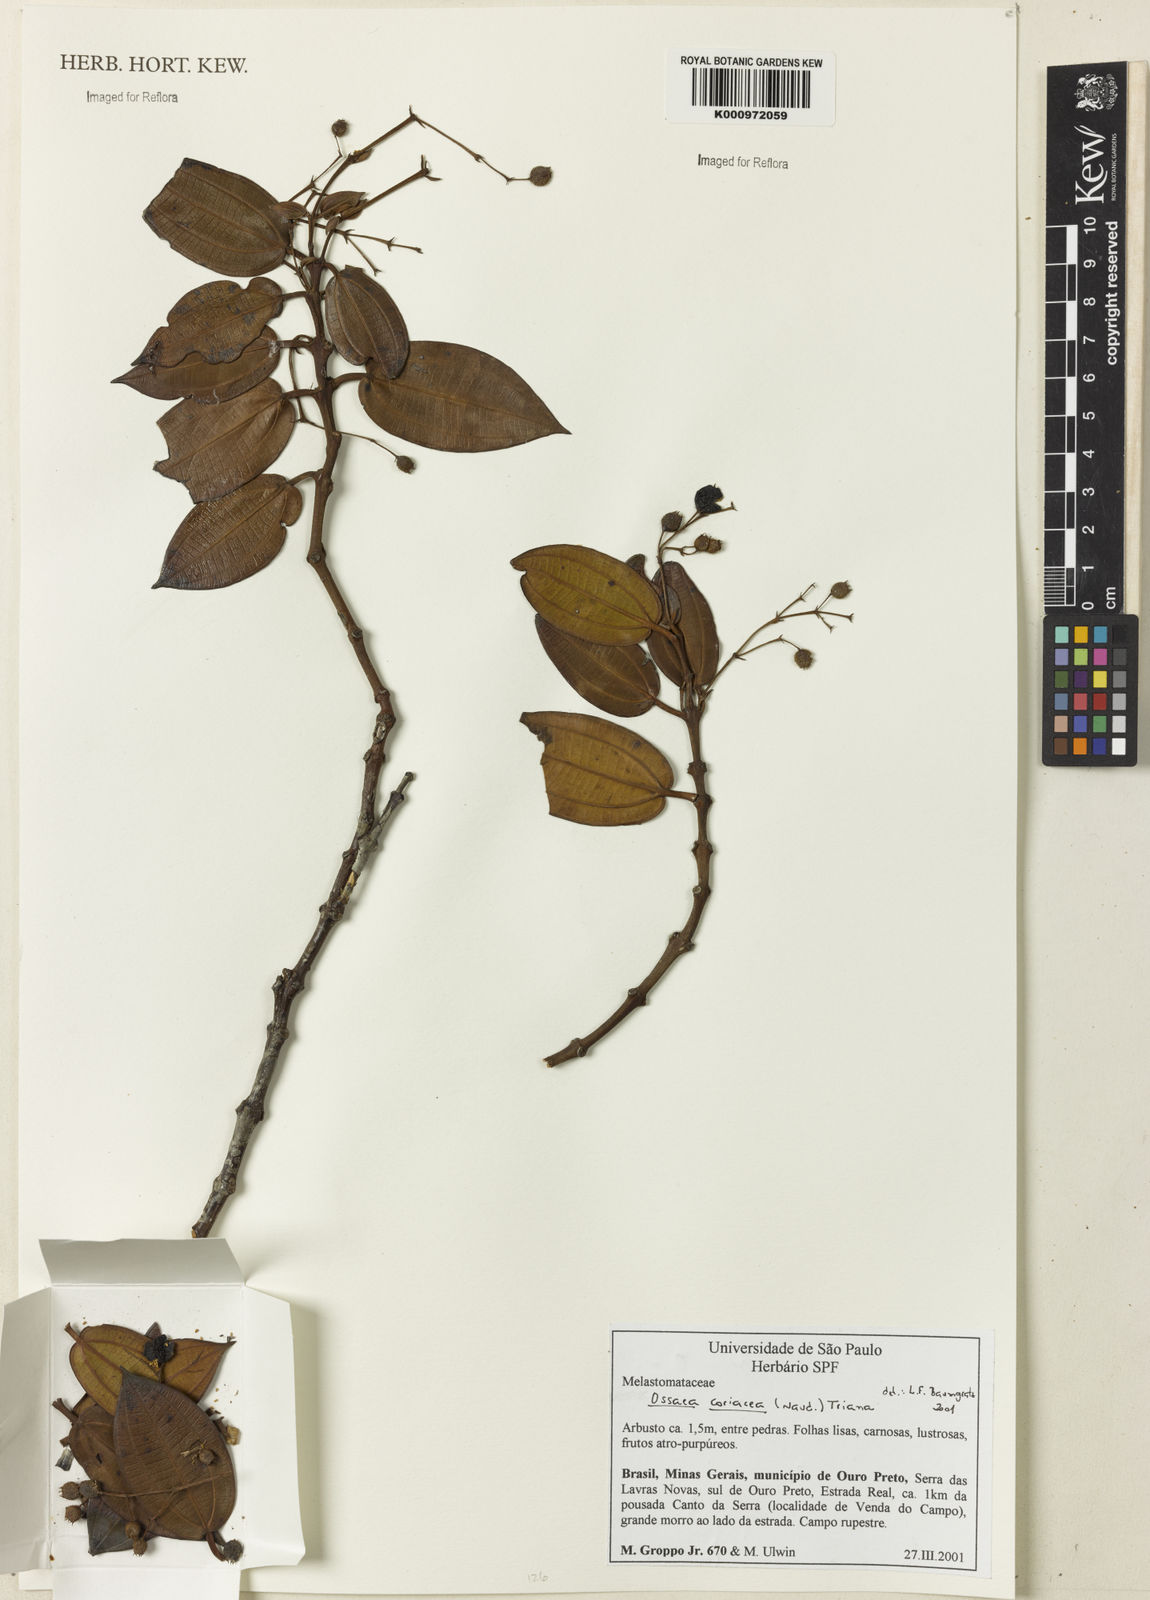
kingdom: Plantae
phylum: Tracheophyta
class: Magnoliopsida
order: Myrtales
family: Melastomataceae
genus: Miconia
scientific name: Miconia leacongestiflora
